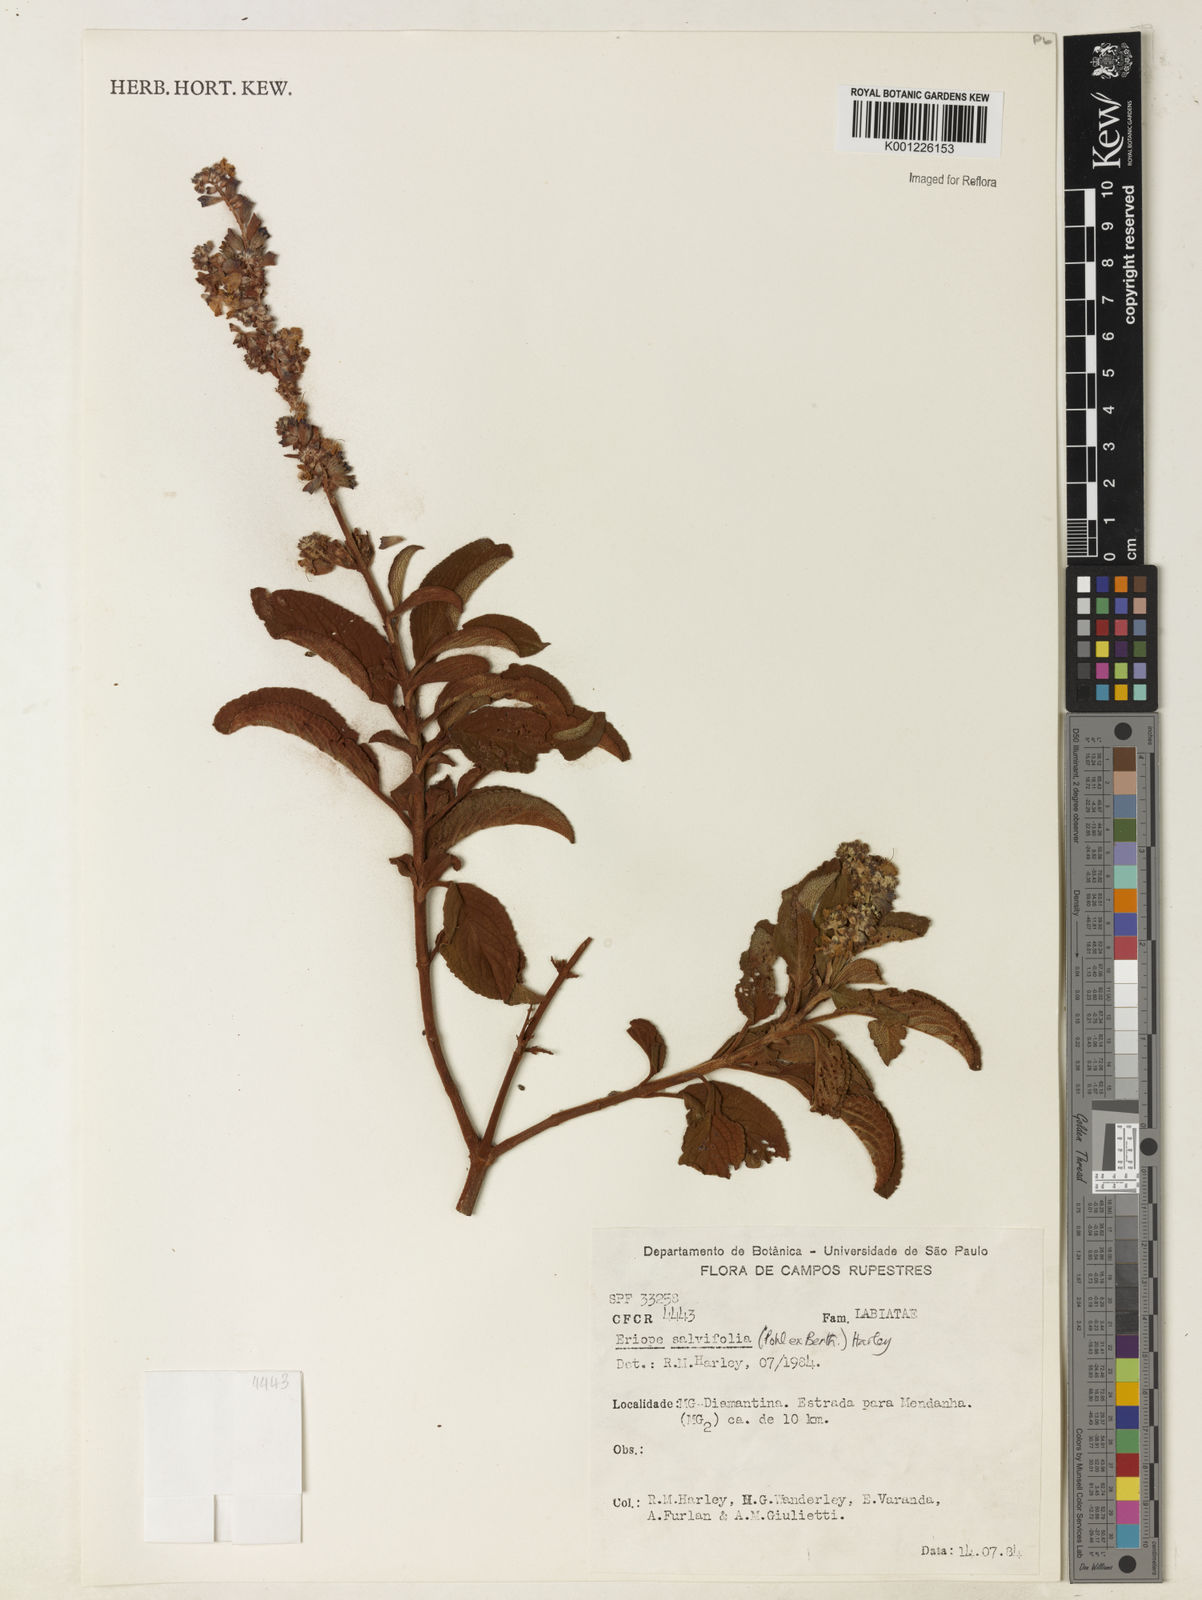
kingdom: Plantae
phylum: Tracheophyta
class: Magnoliopsida
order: Lamiales
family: Lamiaceae
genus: Eriope
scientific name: Eriope salviifolia
